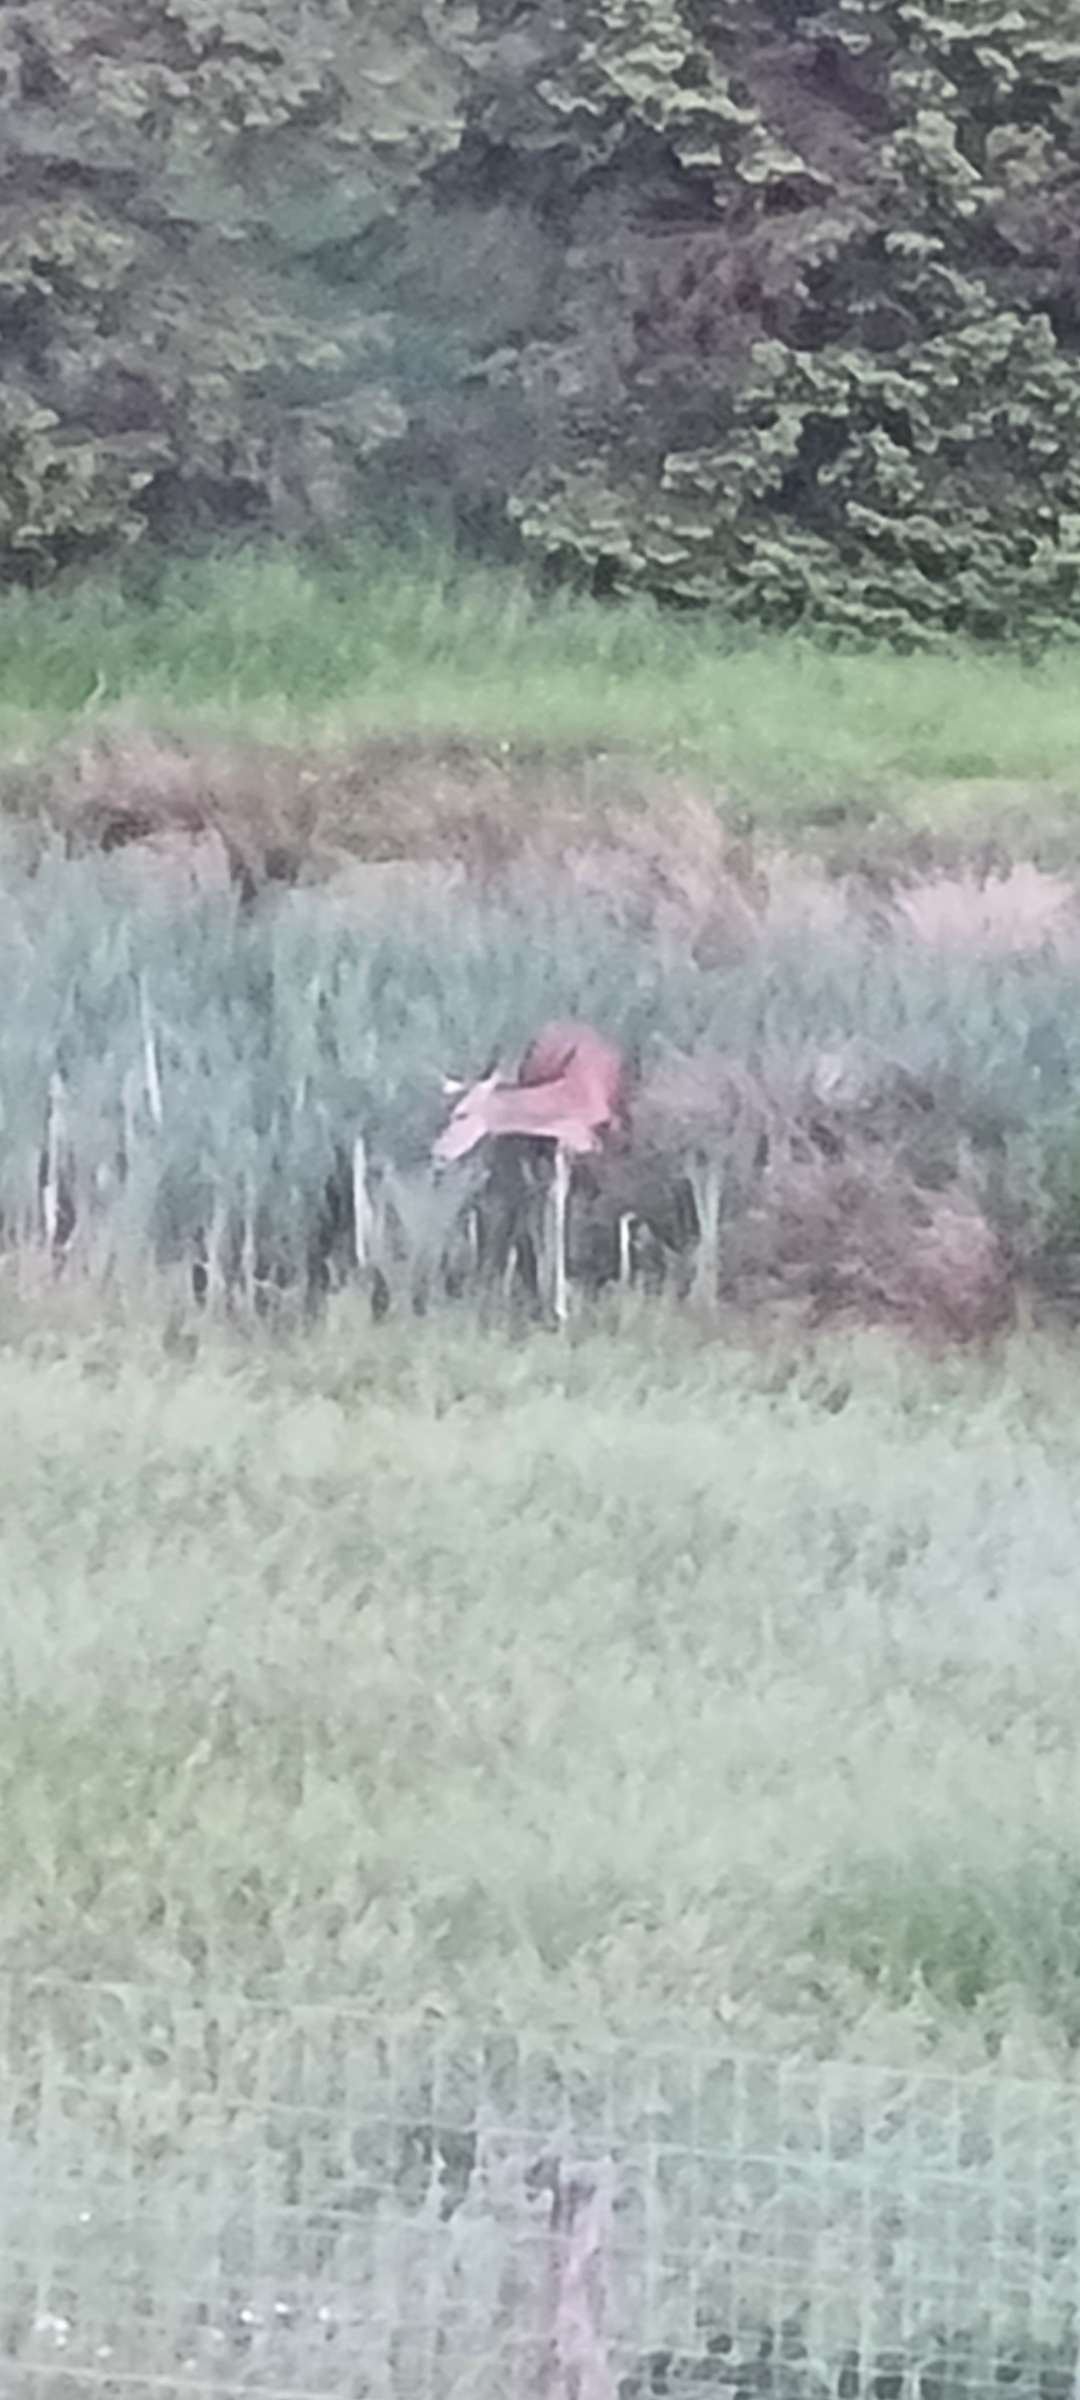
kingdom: Animalia
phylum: Chordata
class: Mammalia
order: Artiodactyla
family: Cervidae
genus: Cervus
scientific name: Cervus elaphus
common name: Krondyr
